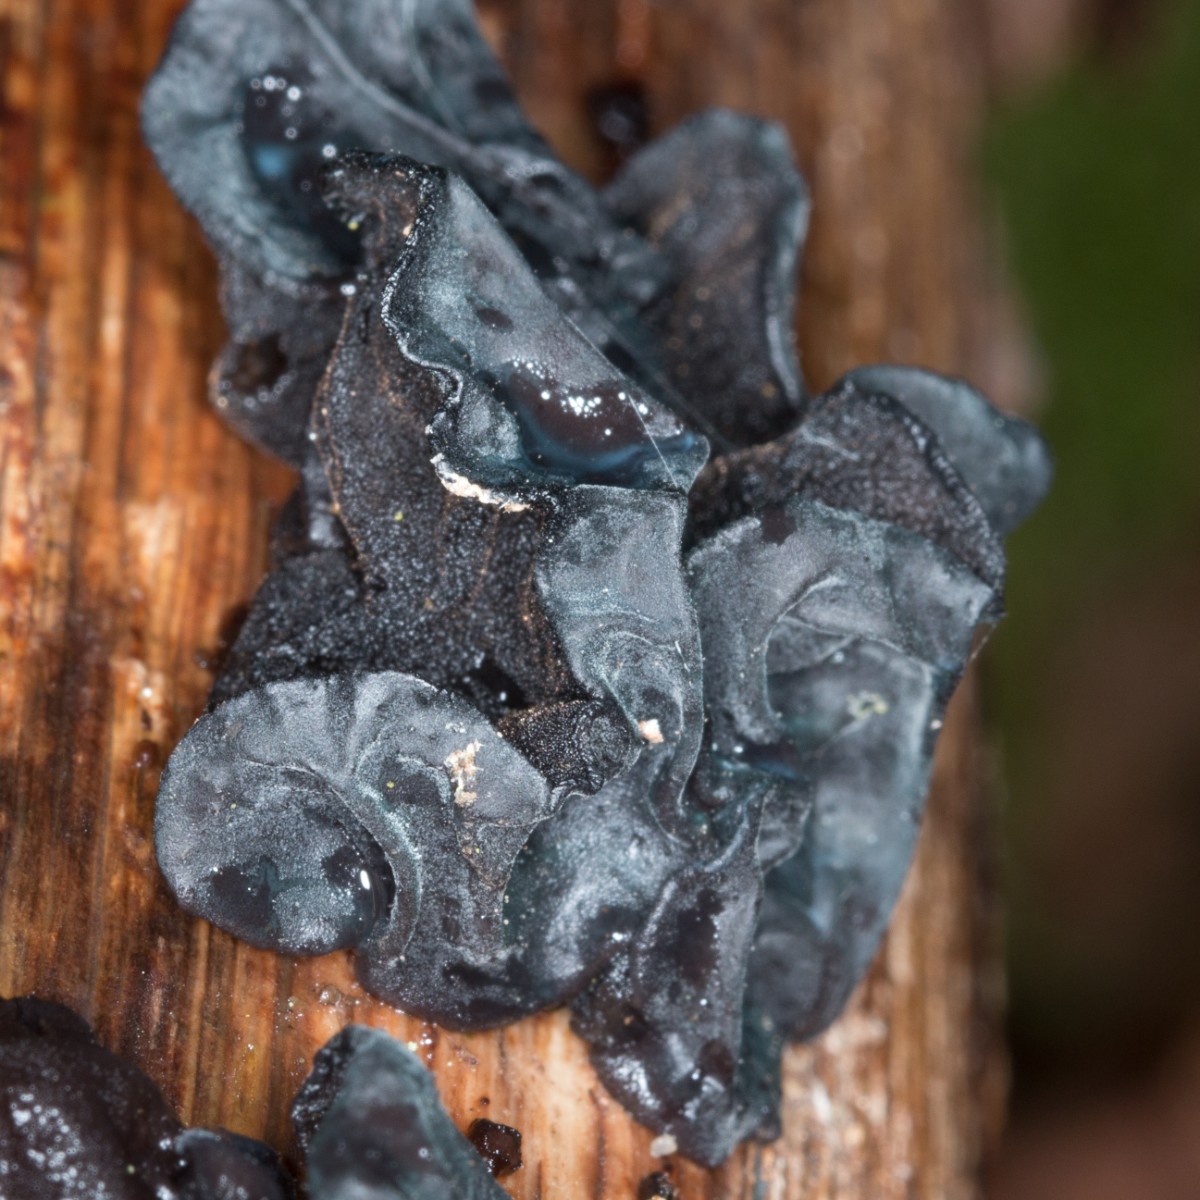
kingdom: Fungi
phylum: Basidiomycota
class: Agaricomycetes
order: Auriculariales
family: Auriculariaceae
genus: Exidia
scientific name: Exidia glandulosa
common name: ege-bævretop
